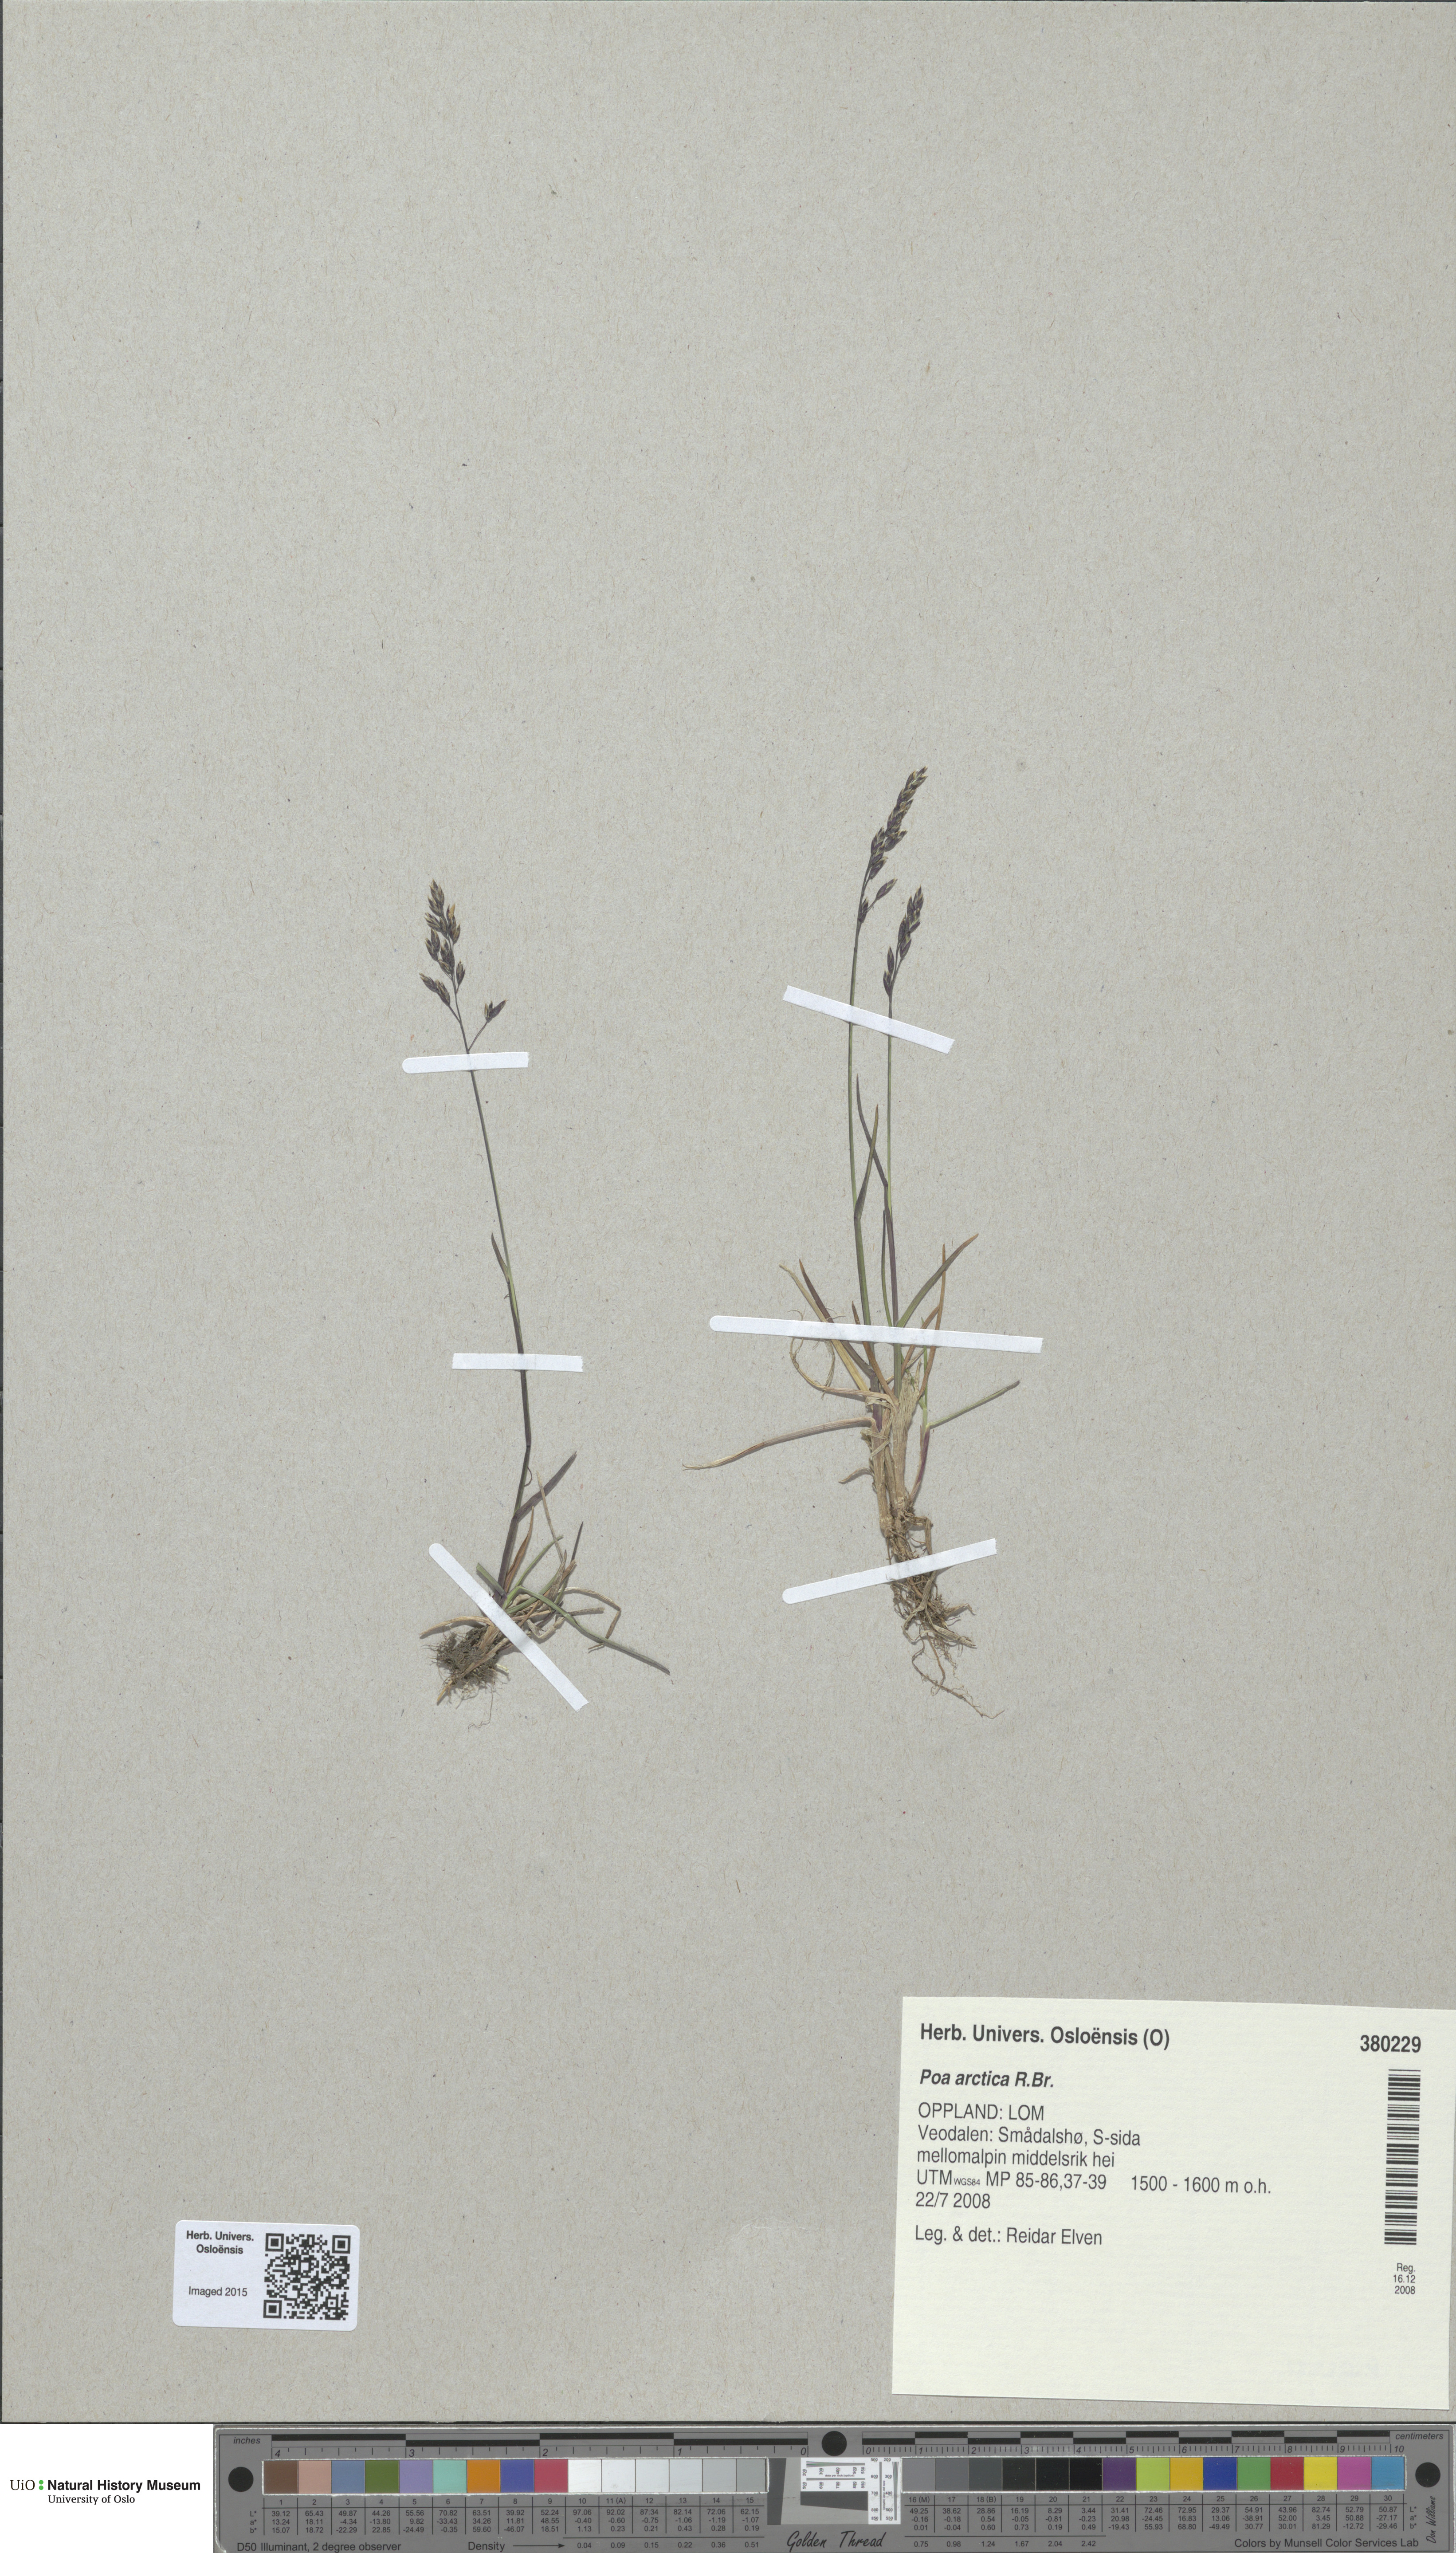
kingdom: Plantae
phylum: Tracheophyta
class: Liliopsida
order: Poales
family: Poaceae
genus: Poa
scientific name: Poa arctica
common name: Arctic bluegrass
